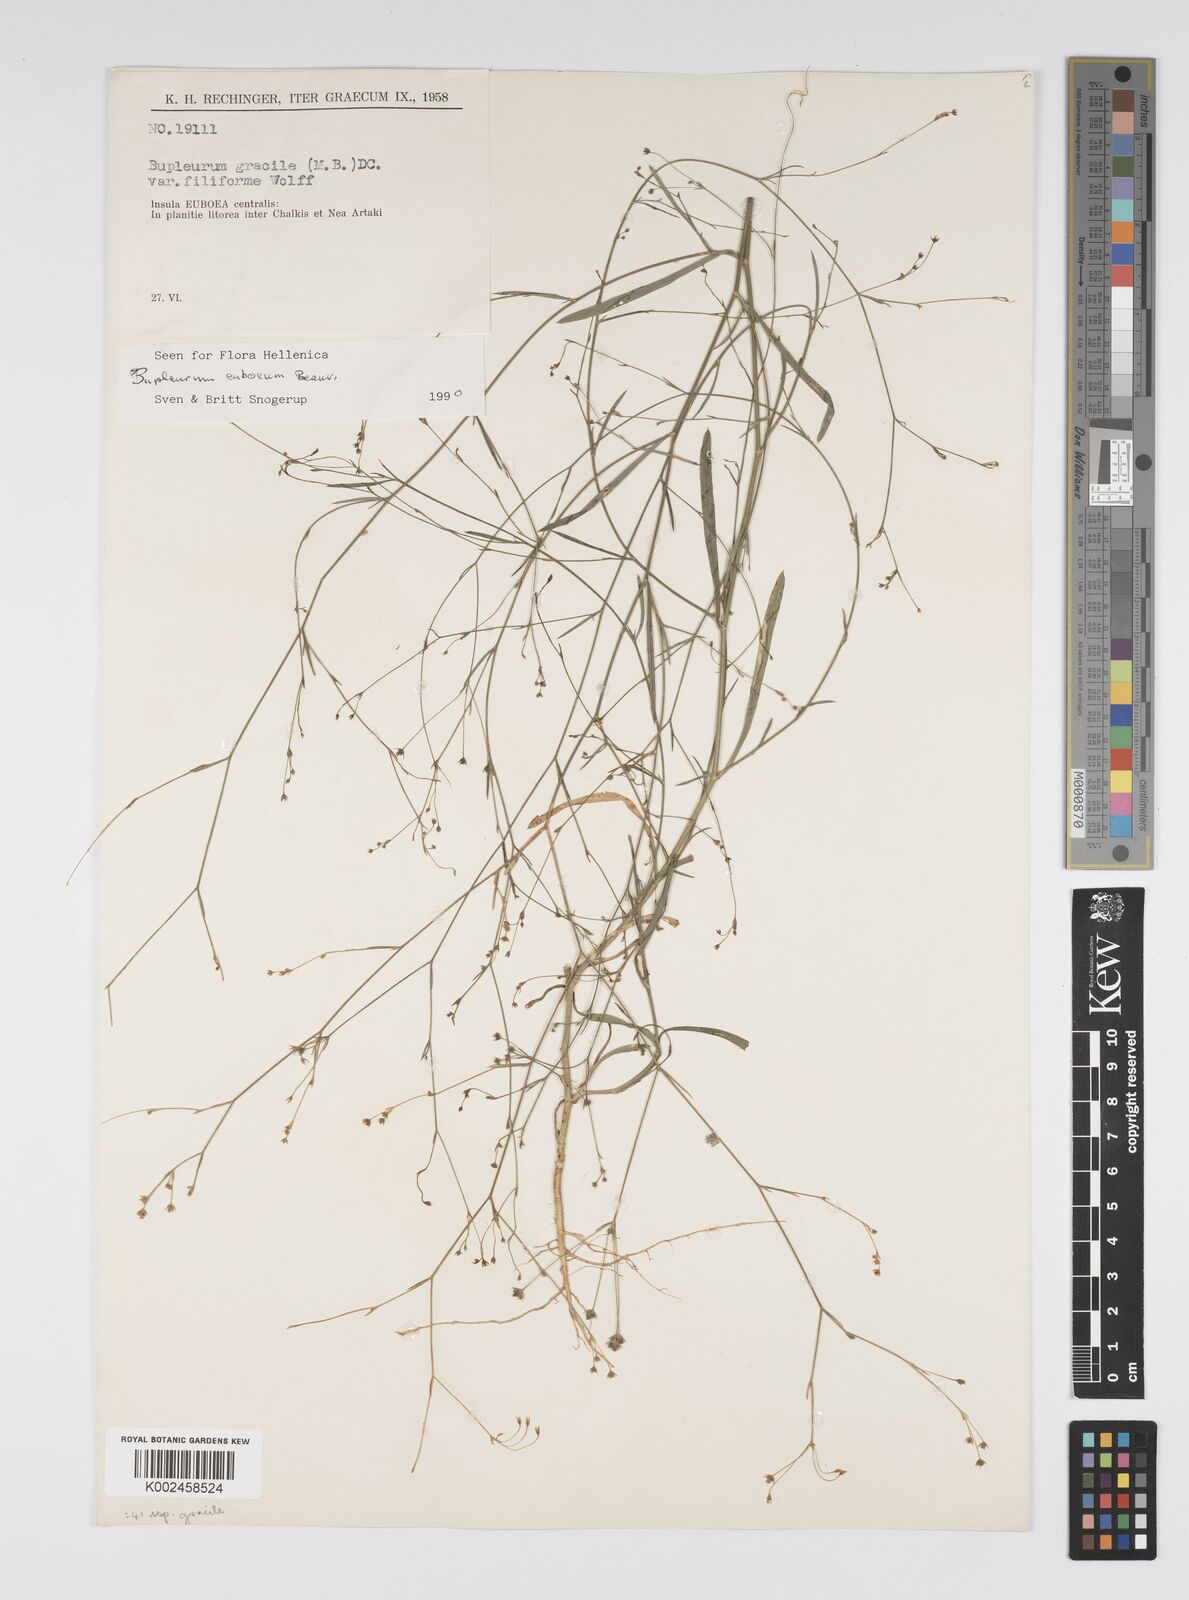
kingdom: Plantae
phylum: Tracheophyta
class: Magnoliopsida
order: Apiales
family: Apiaceae
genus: Bupleurum
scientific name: Bupleurum tenuissimum
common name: Slender hare's-ear
